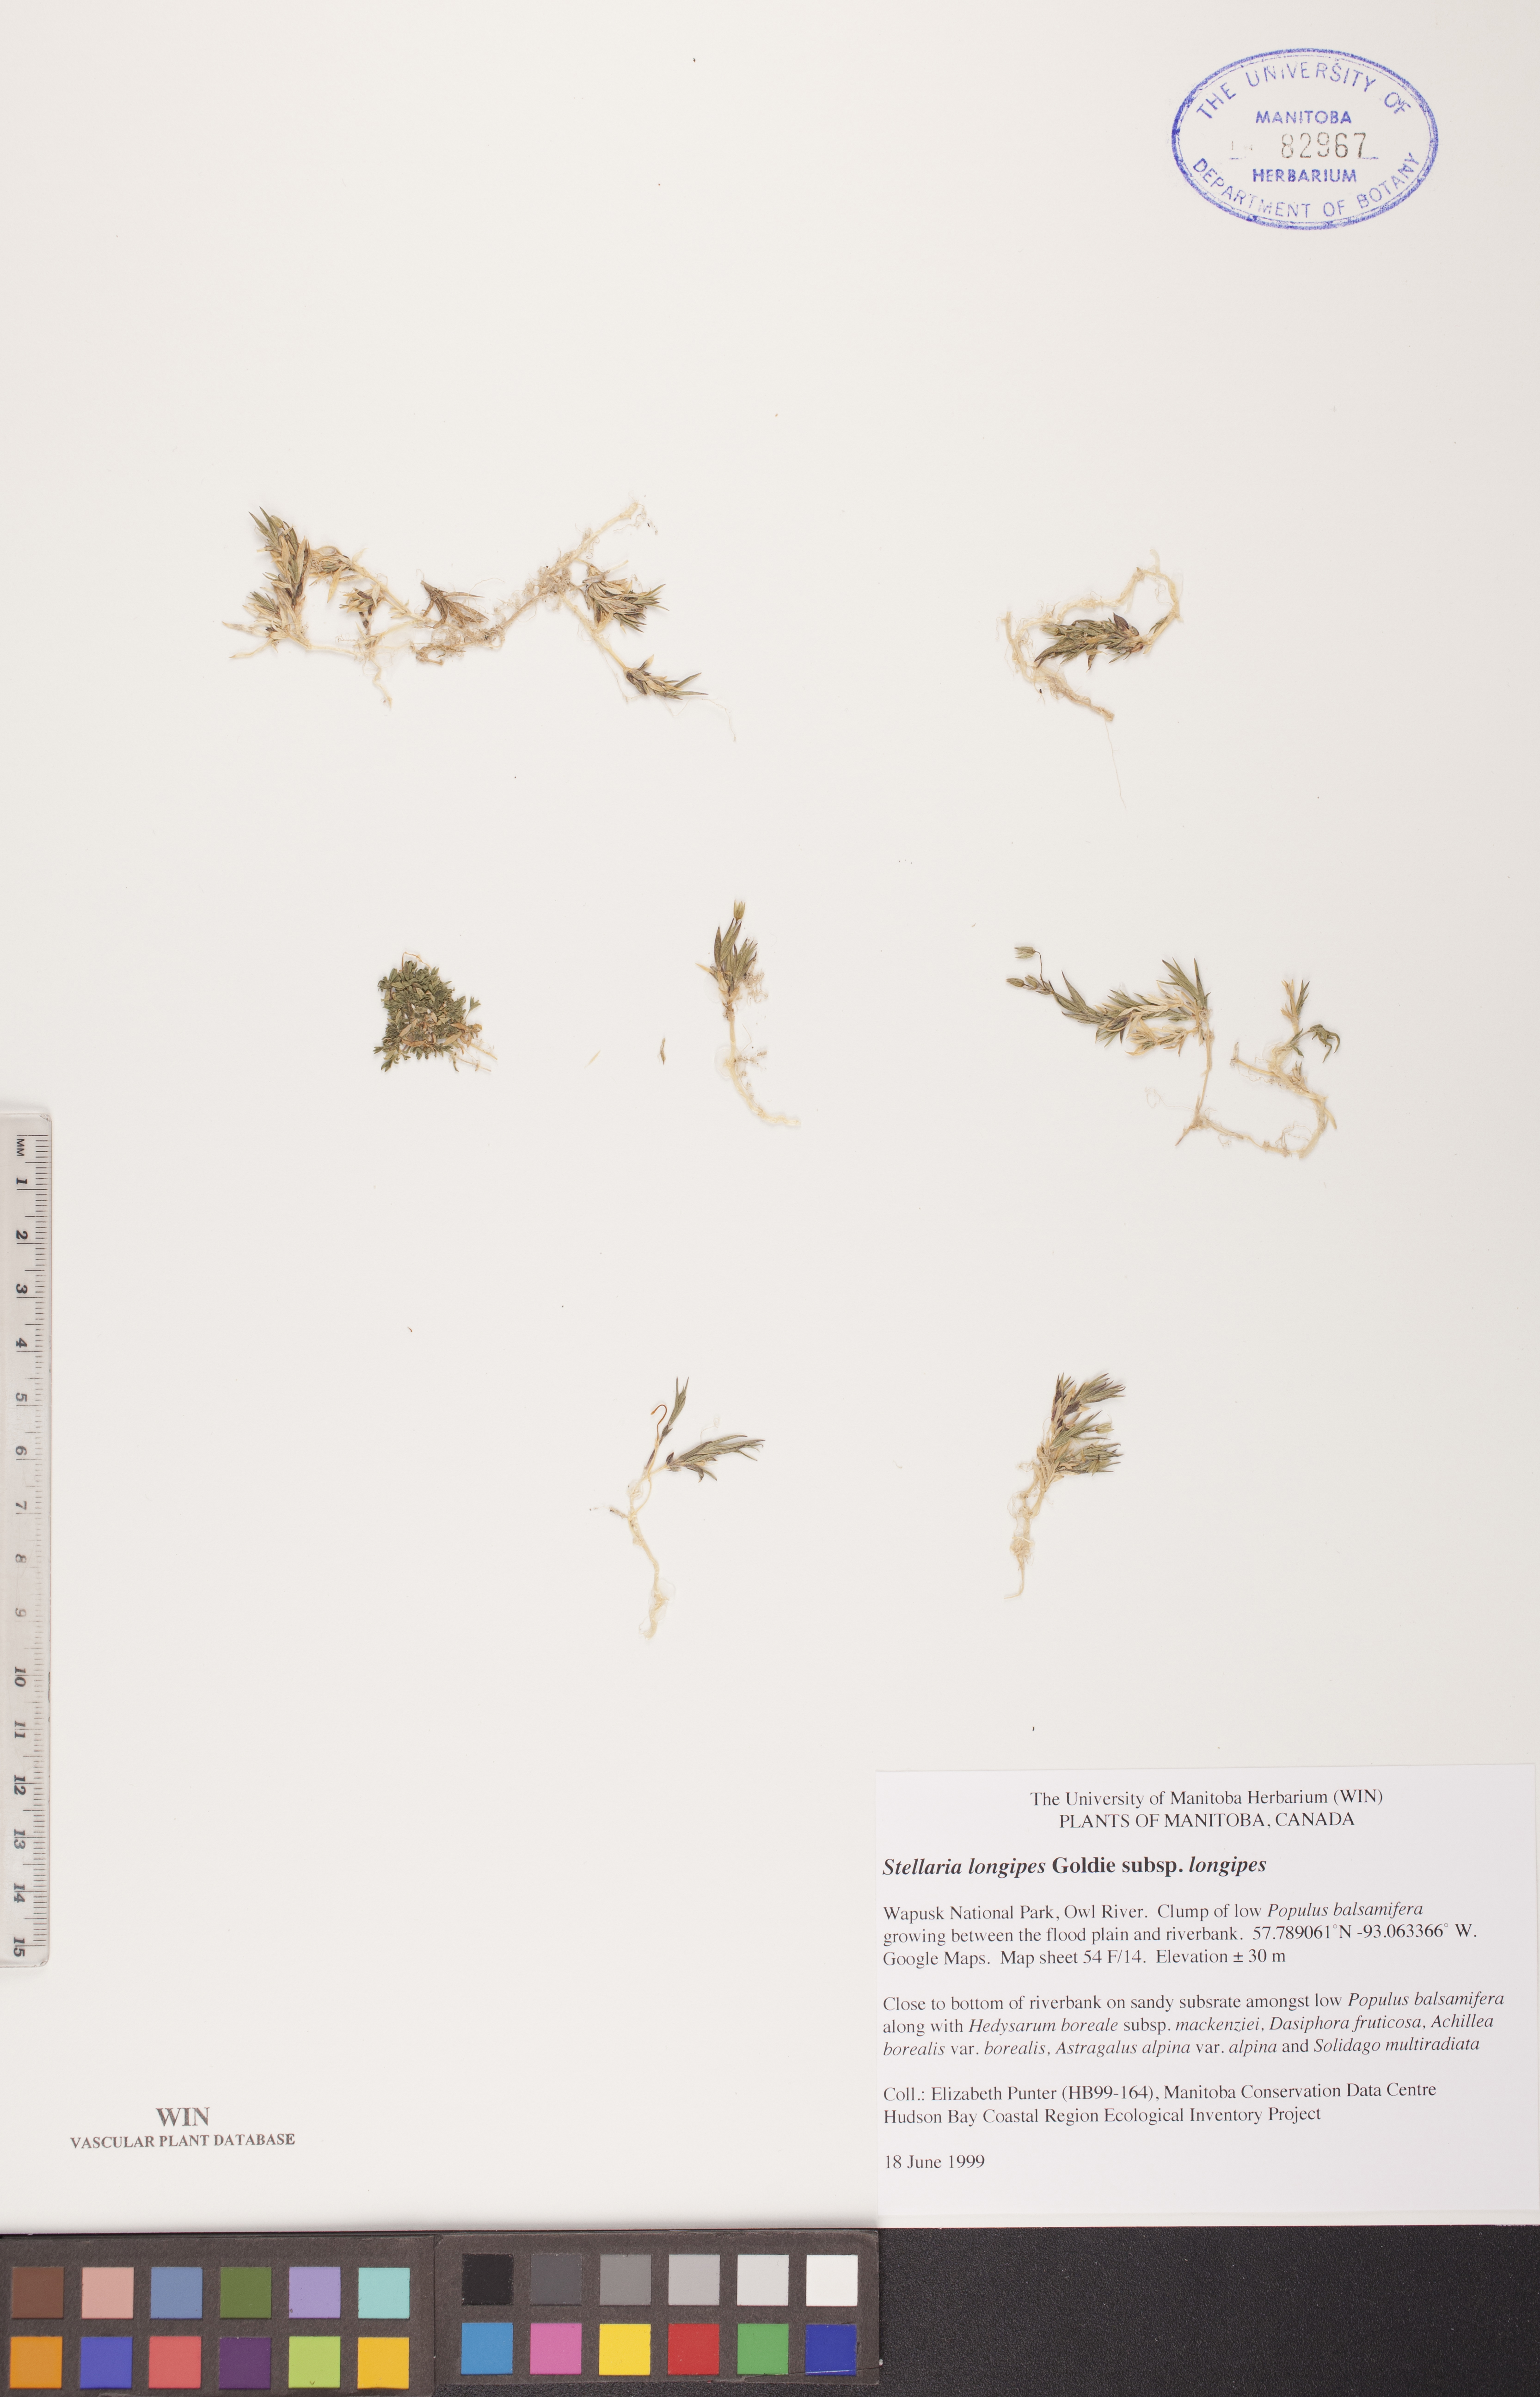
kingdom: Plantae
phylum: Tracheophyta
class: Magnoliopsida
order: Caryophyllales
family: Caryophyllaceae
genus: Stellaria
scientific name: Stellaria longipes
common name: Goldie's starwort
